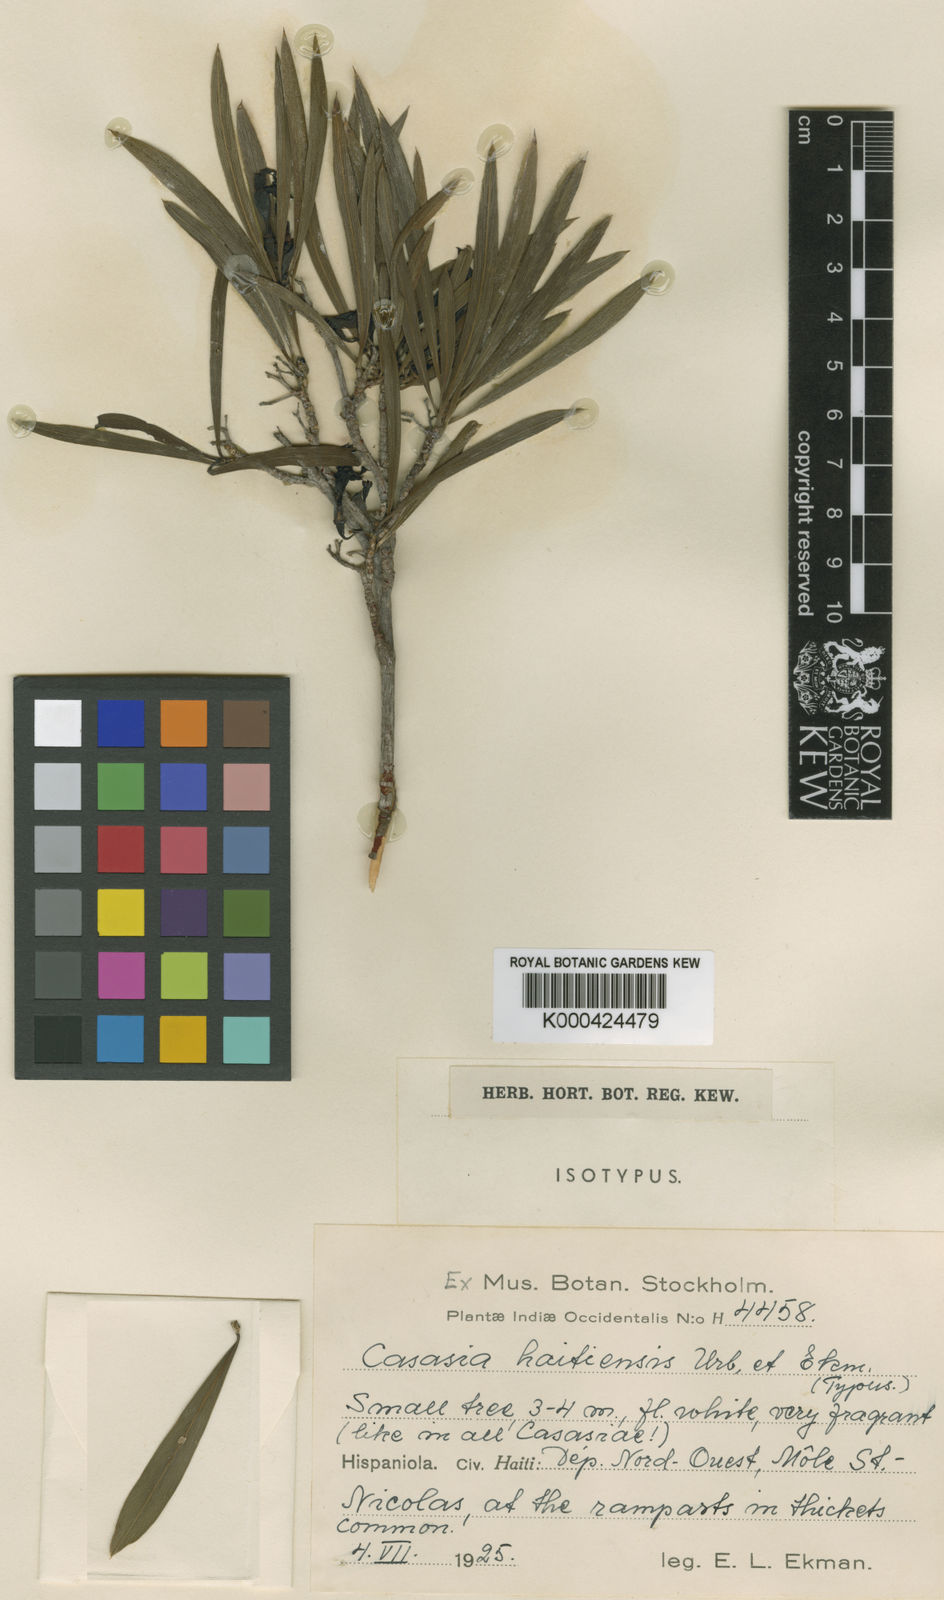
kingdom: Plantae
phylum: Tracheophyta
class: Magnoliopsida
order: Gentianales
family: Rubiaceae
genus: Casasia
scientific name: Casasia haitiensis
